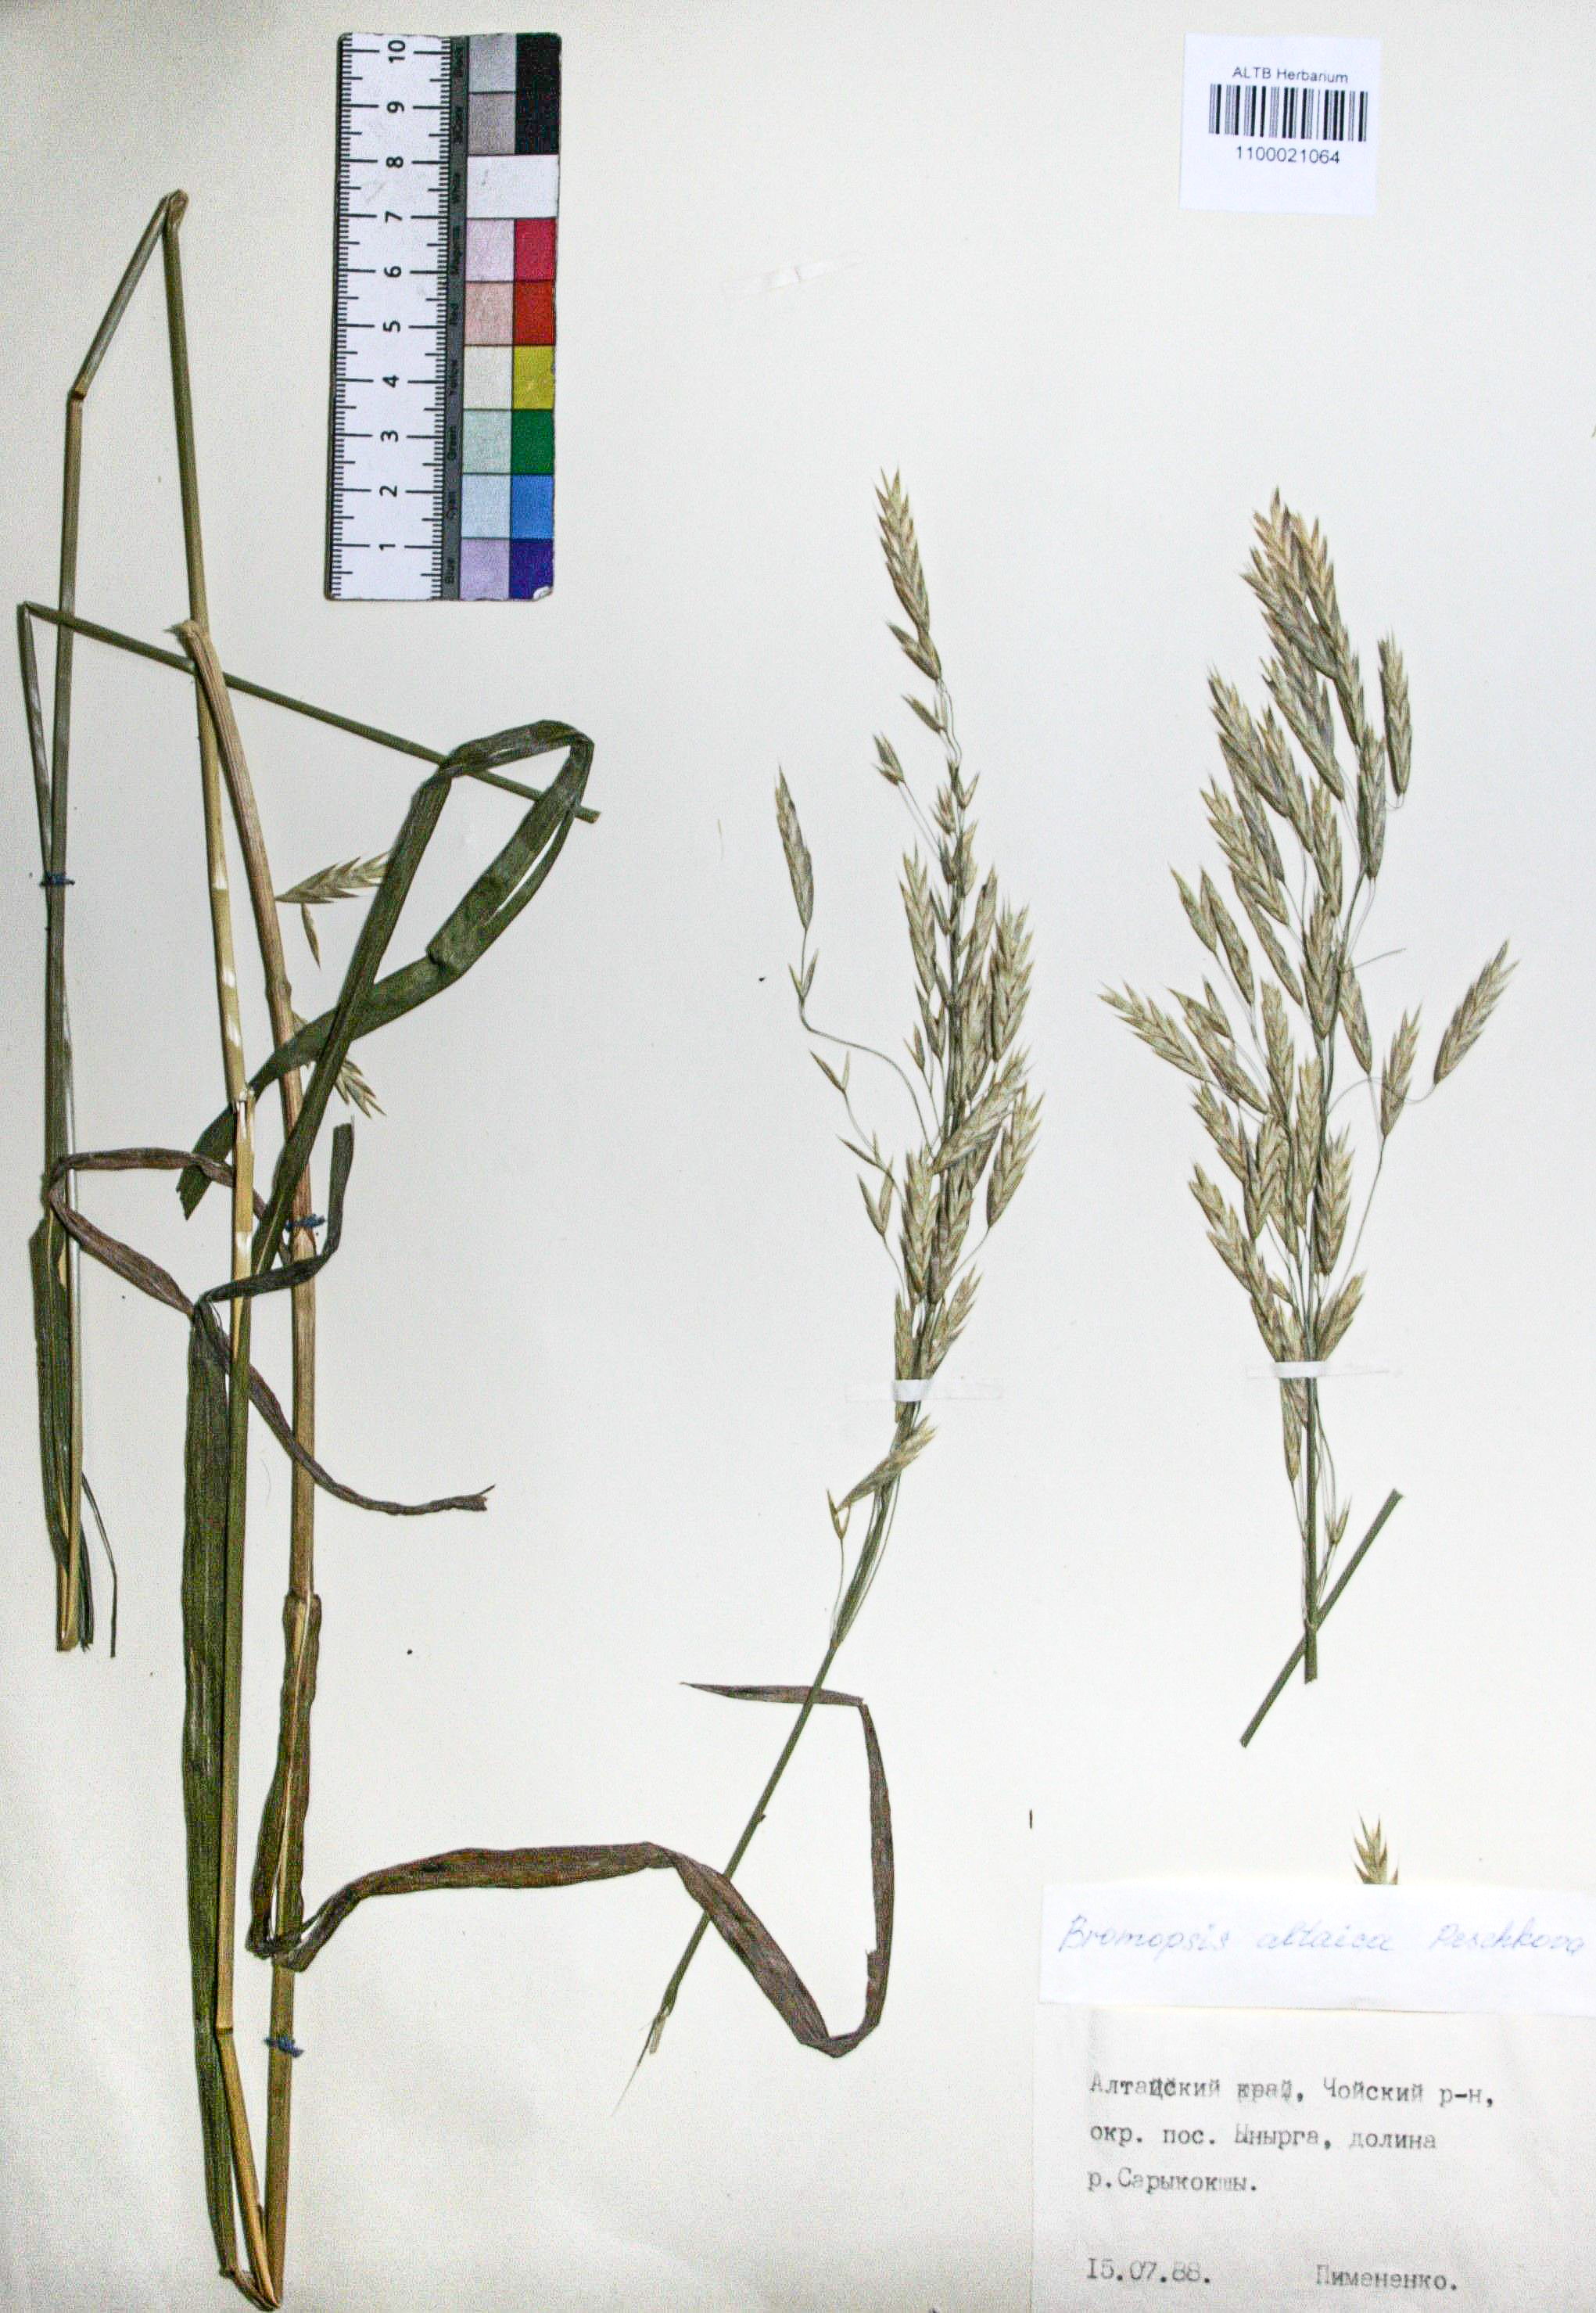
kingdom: Plantae
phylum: Tracheophyta
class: Liliopsida
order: Poales
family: Poaceae
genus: Bromus
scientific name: Bromus pumpellianus
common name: Pumpelly's brome
